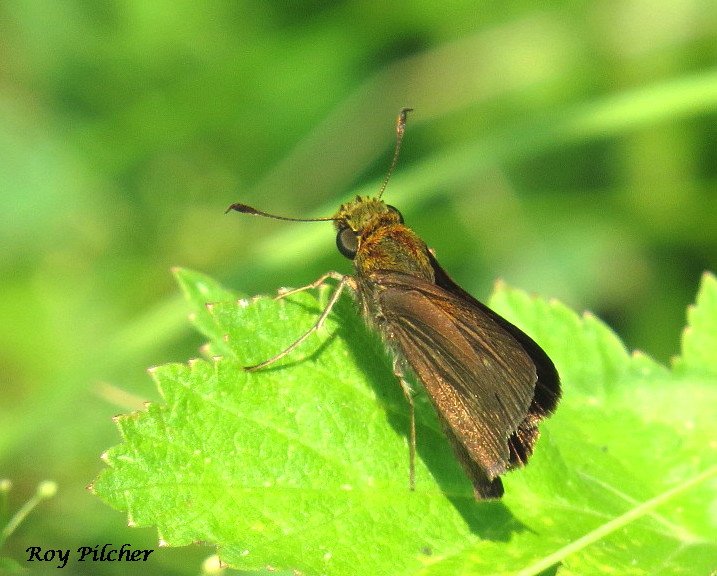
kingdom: Animalia
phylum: Arthropoda
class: Insecta
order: Lepidoptera
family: Hesperiidae
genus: Euphyes
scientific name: Euphyes vestris
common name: Dun Skipper
